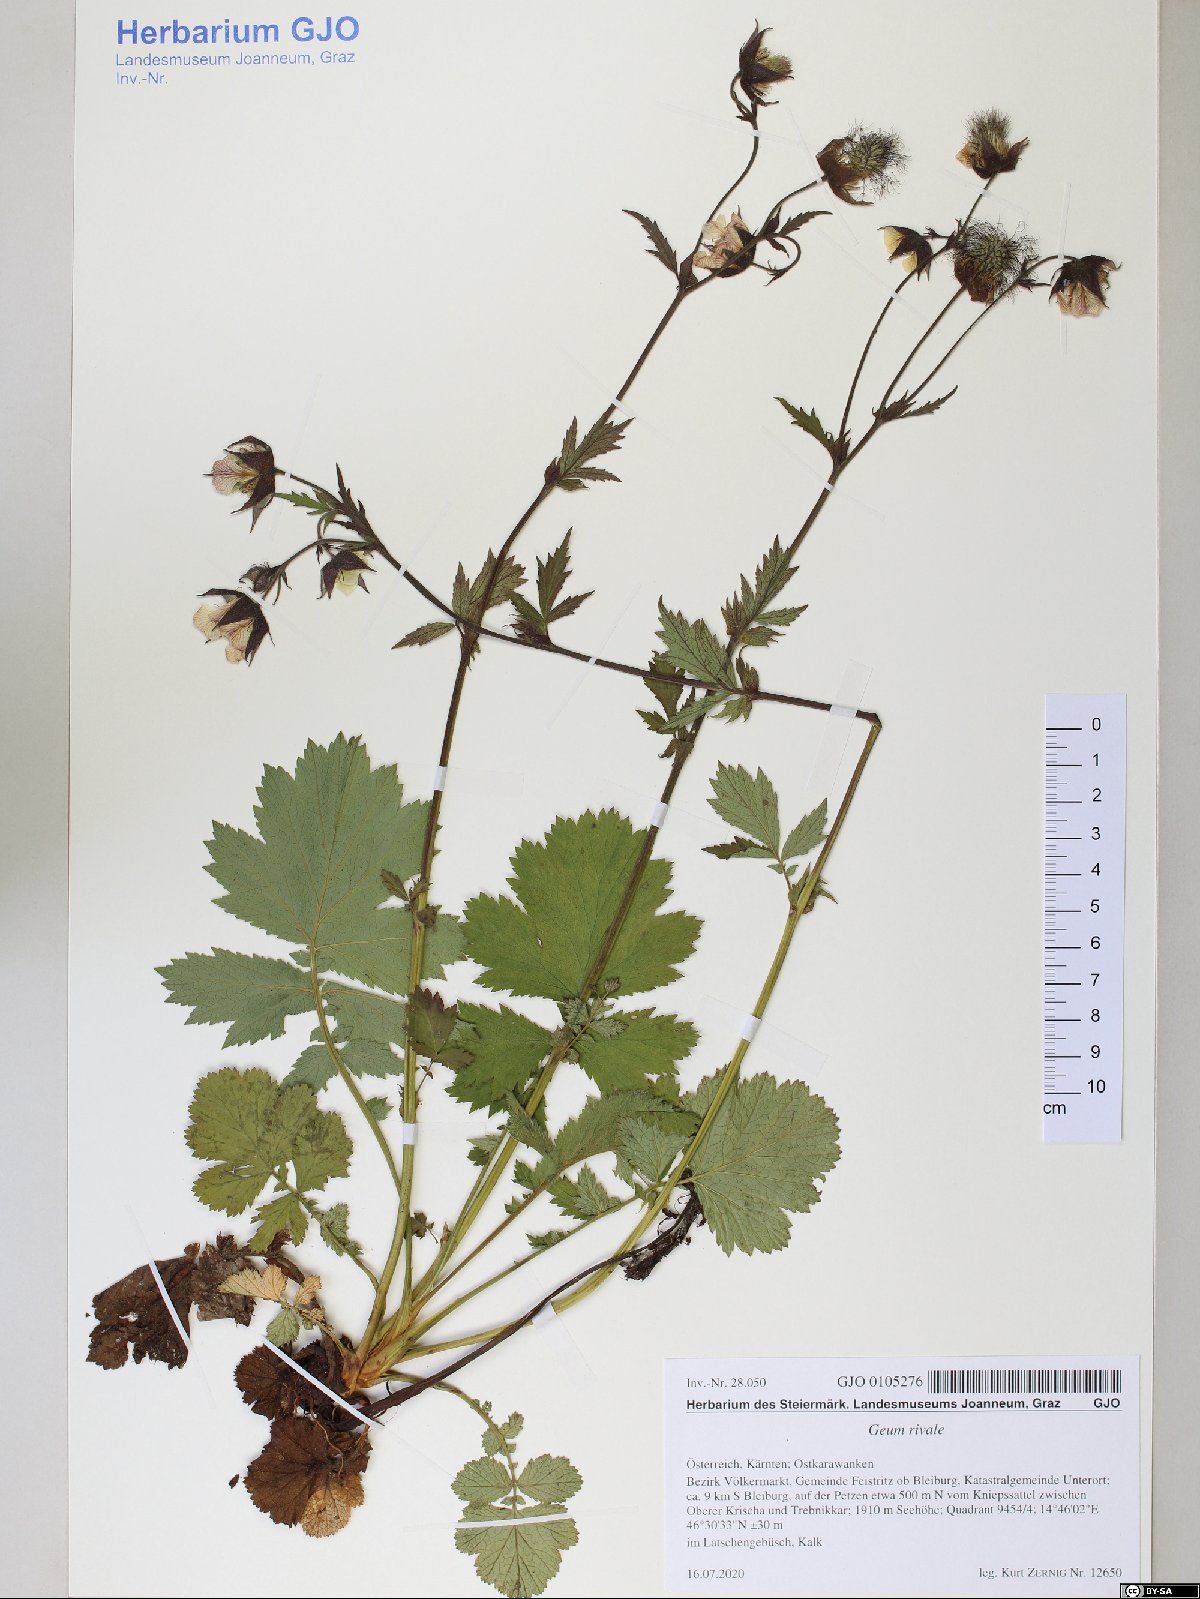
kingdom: Plantae
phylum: Tracheophyta
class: Magnoliopsida
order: Rosales
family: Rosaceae
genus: Geum
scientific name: Geum rivale
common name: Water avens
